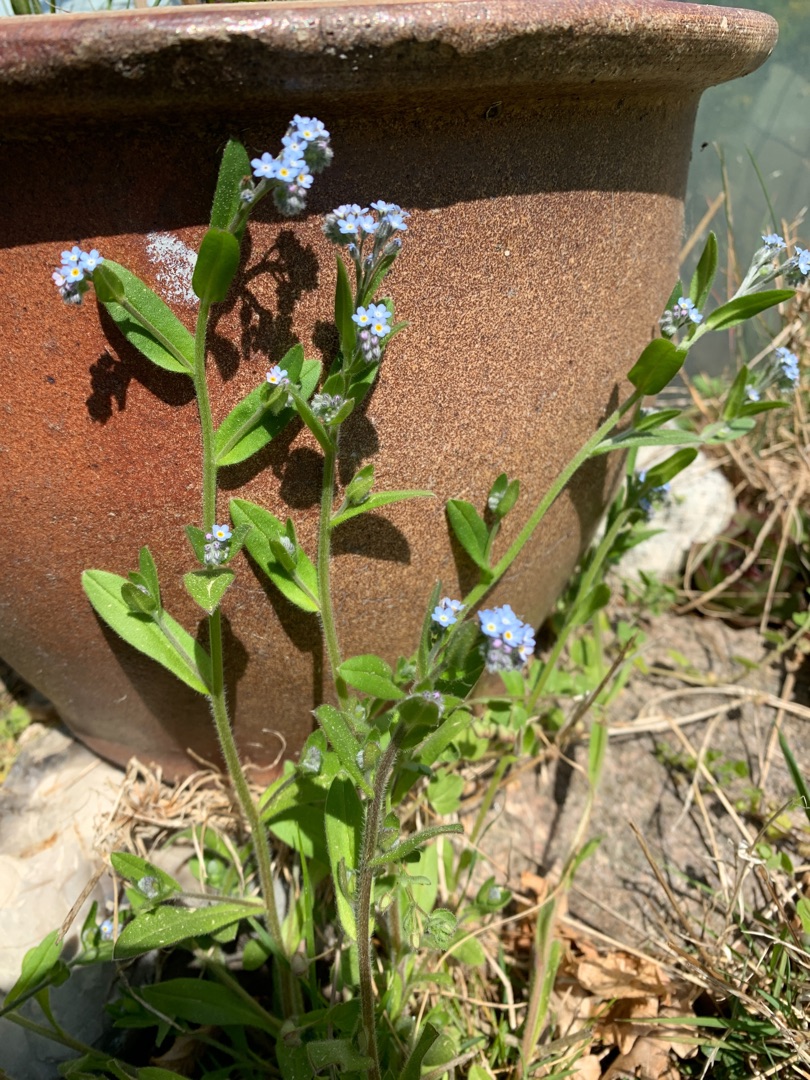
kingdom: Plantae
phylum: Tracheophyta
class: Magnoliopsida
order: Boraginales
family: Boraginaceae
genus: Myosotis
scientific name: Myosotis arvensis
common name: Mark-forglemmigej
